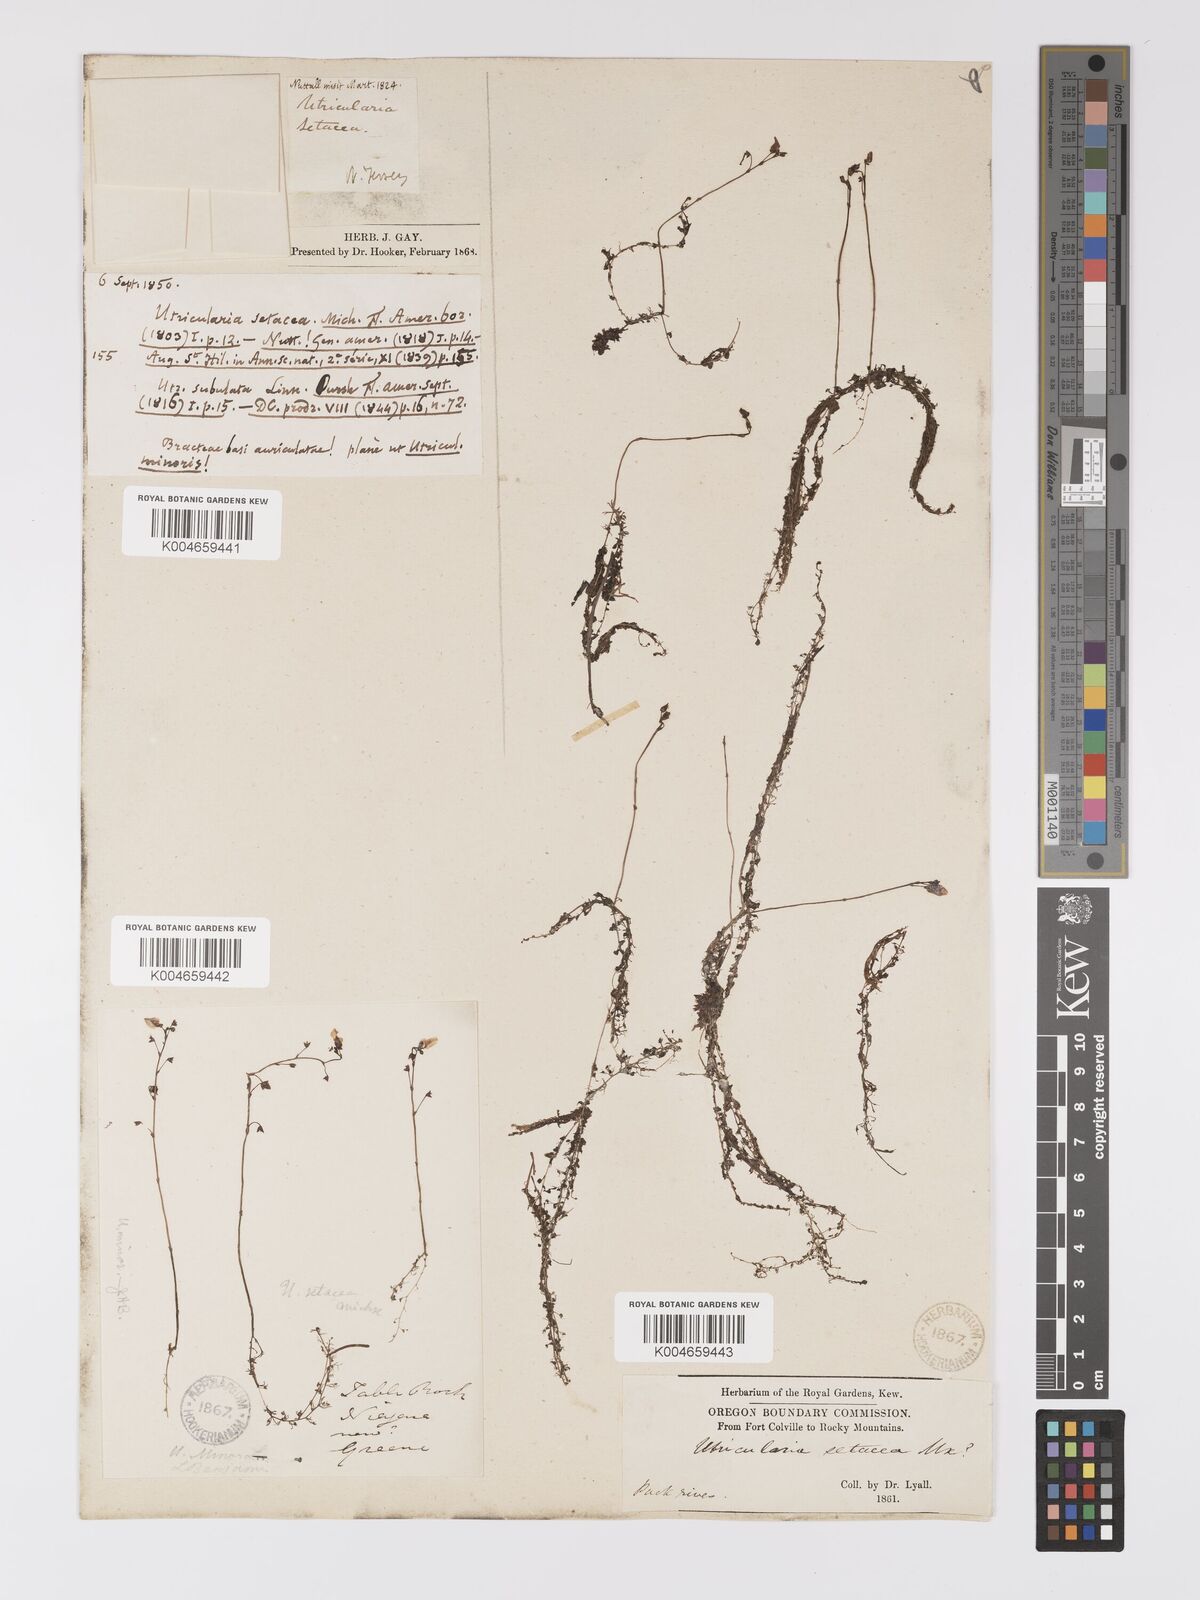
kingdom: Plantae
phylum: Tracheophyta
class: Magnoliopsida
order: Lamiales
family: Lentibulariaceae
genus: Utricularia
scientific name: Utricularia minor
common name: Lesser bladderwort
